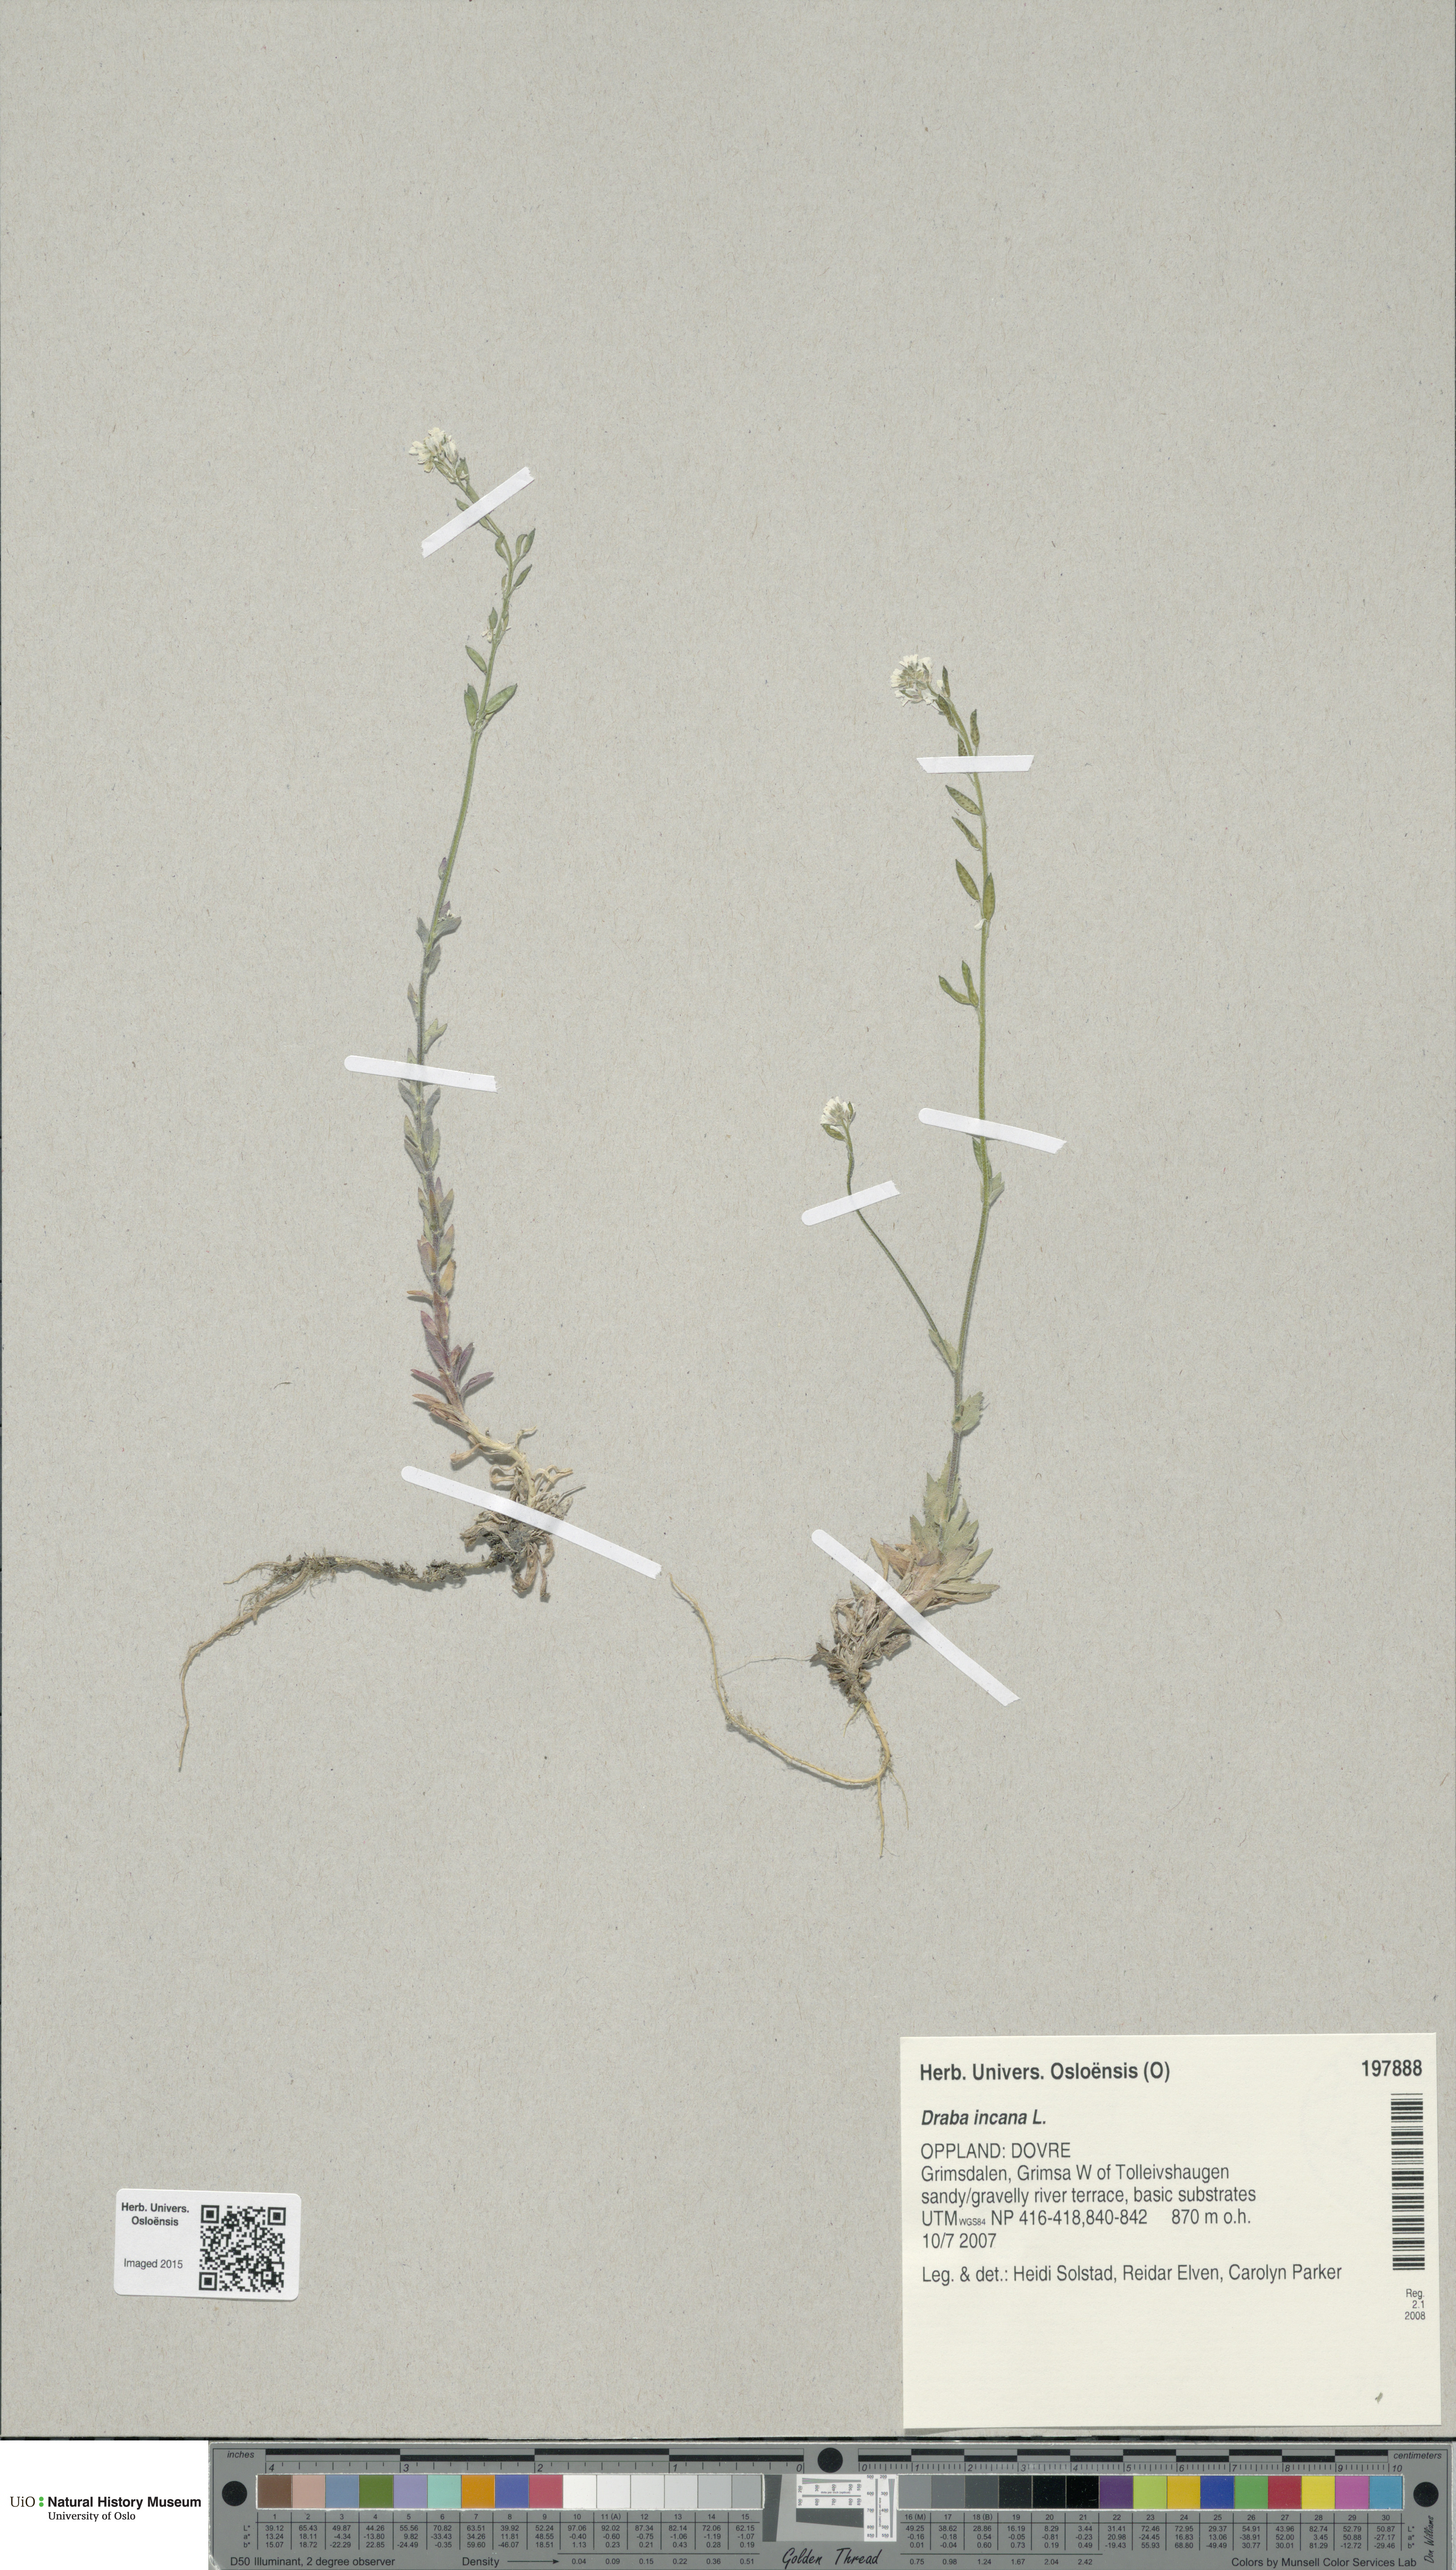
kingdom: Plantae
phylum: Tracheophyta
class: Magnoliopsida
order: Brassicales
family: Brassicaceae
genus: Draba
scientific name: Draba incana
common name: Hoary whitlow-grass
